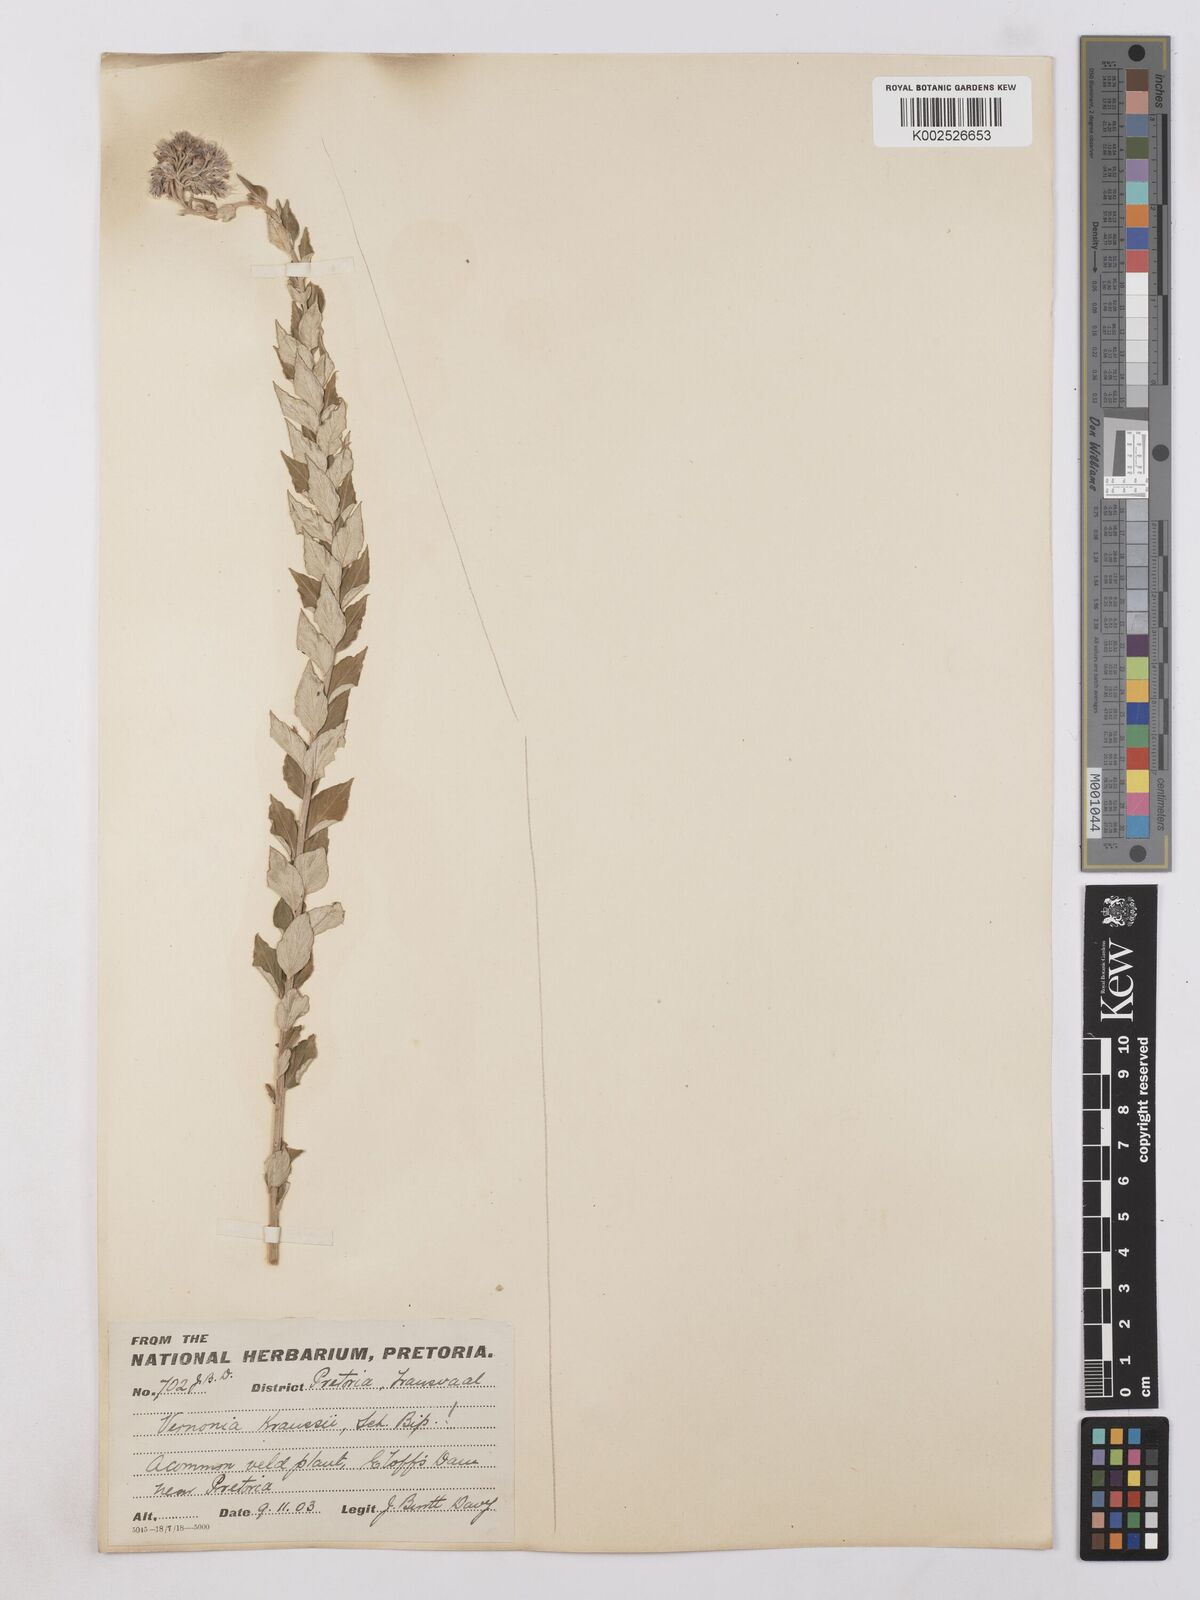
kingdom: Plantae
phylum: Tracheophyta
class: Magnoliopsida
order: Asterales
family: Asteraceae
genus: Hilliardiella
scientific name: Hilliardiella oligocephala
